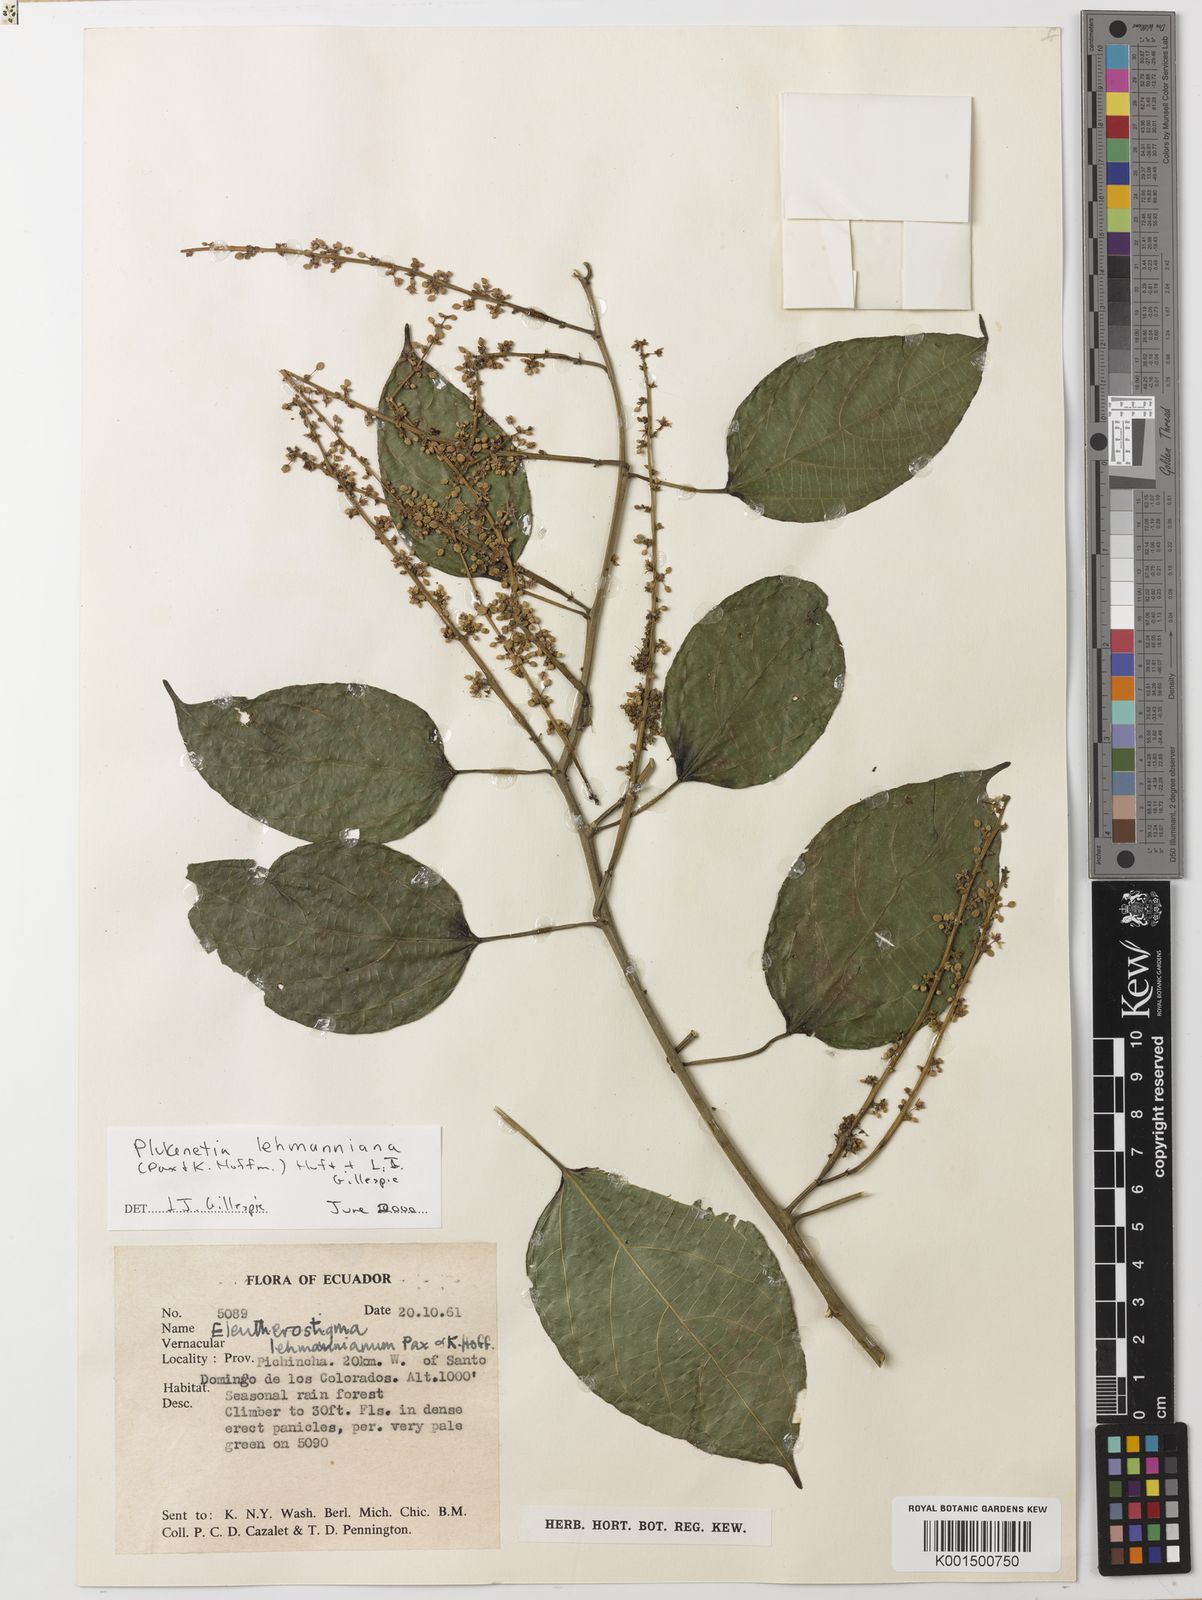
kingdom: Plantae
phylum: Tracheophyta
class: Magnoliopsida
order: Malpighiales
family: Euphorbiaceae
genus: Plukenetia
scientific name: Plukenetia lehmanniana
